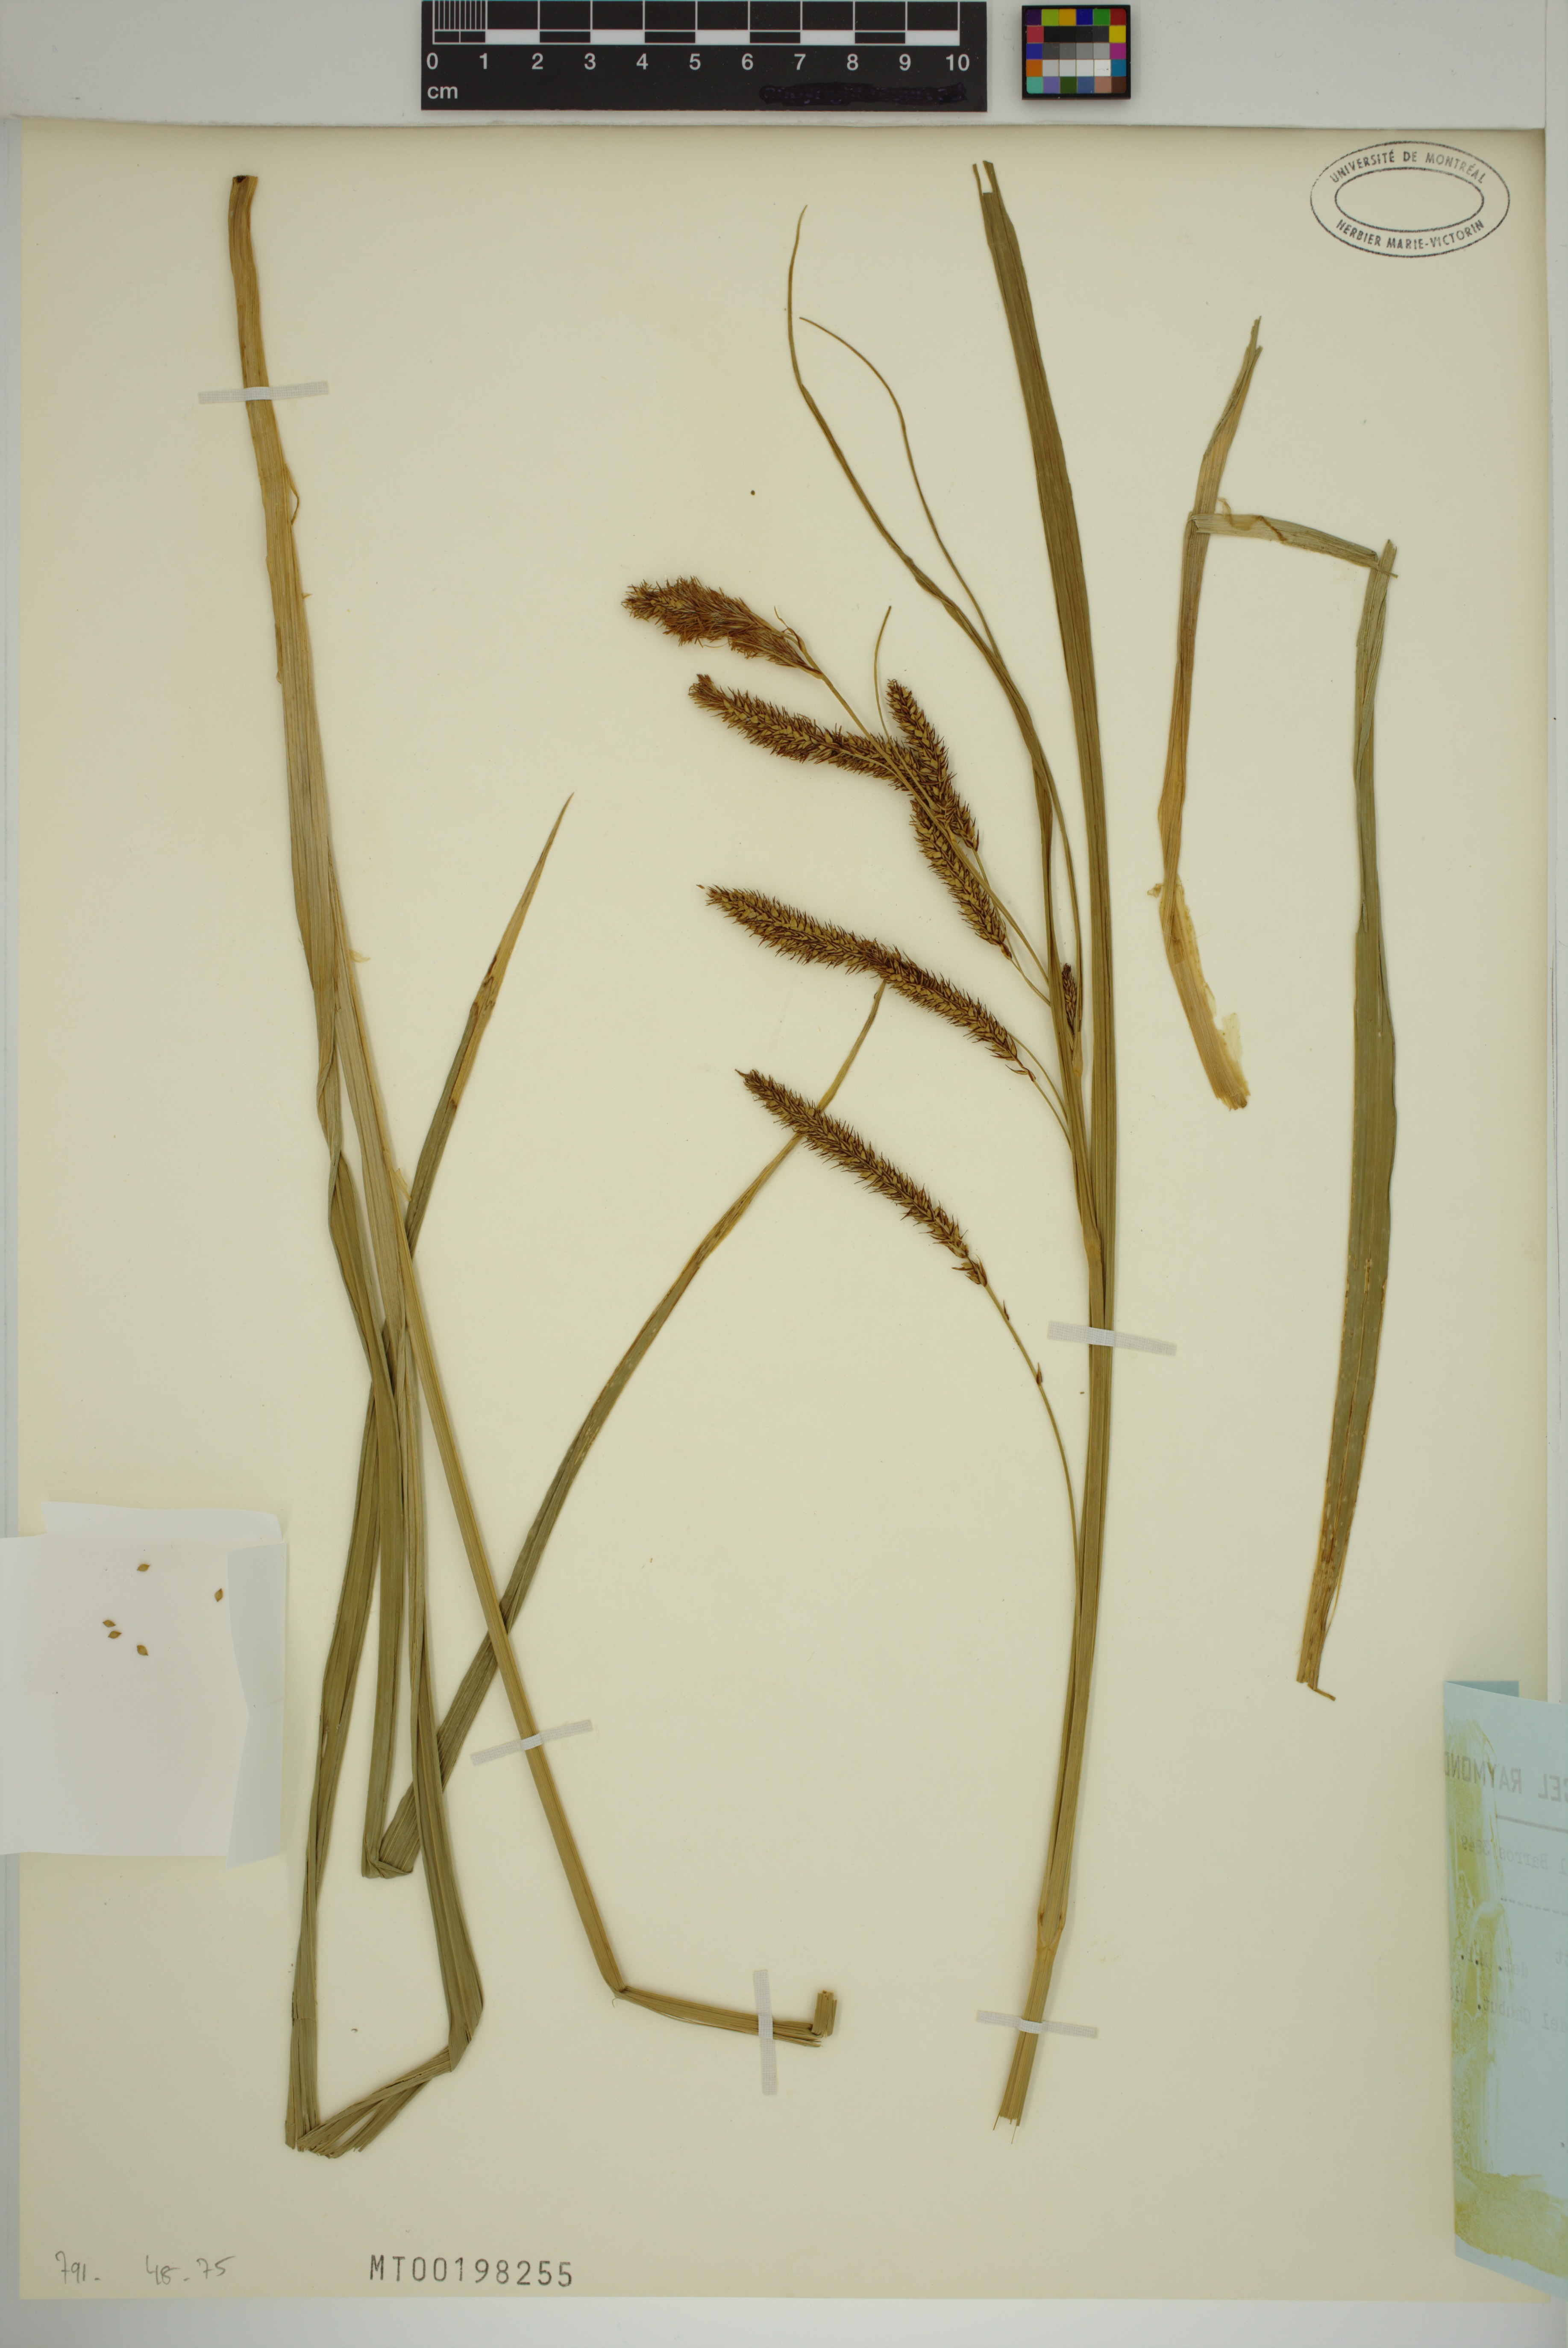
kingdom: Plantae
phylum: Tracheophyta
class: Liliopsida
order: Poales
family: Cyperaceae
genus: Carex
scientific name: Carex darwinii
